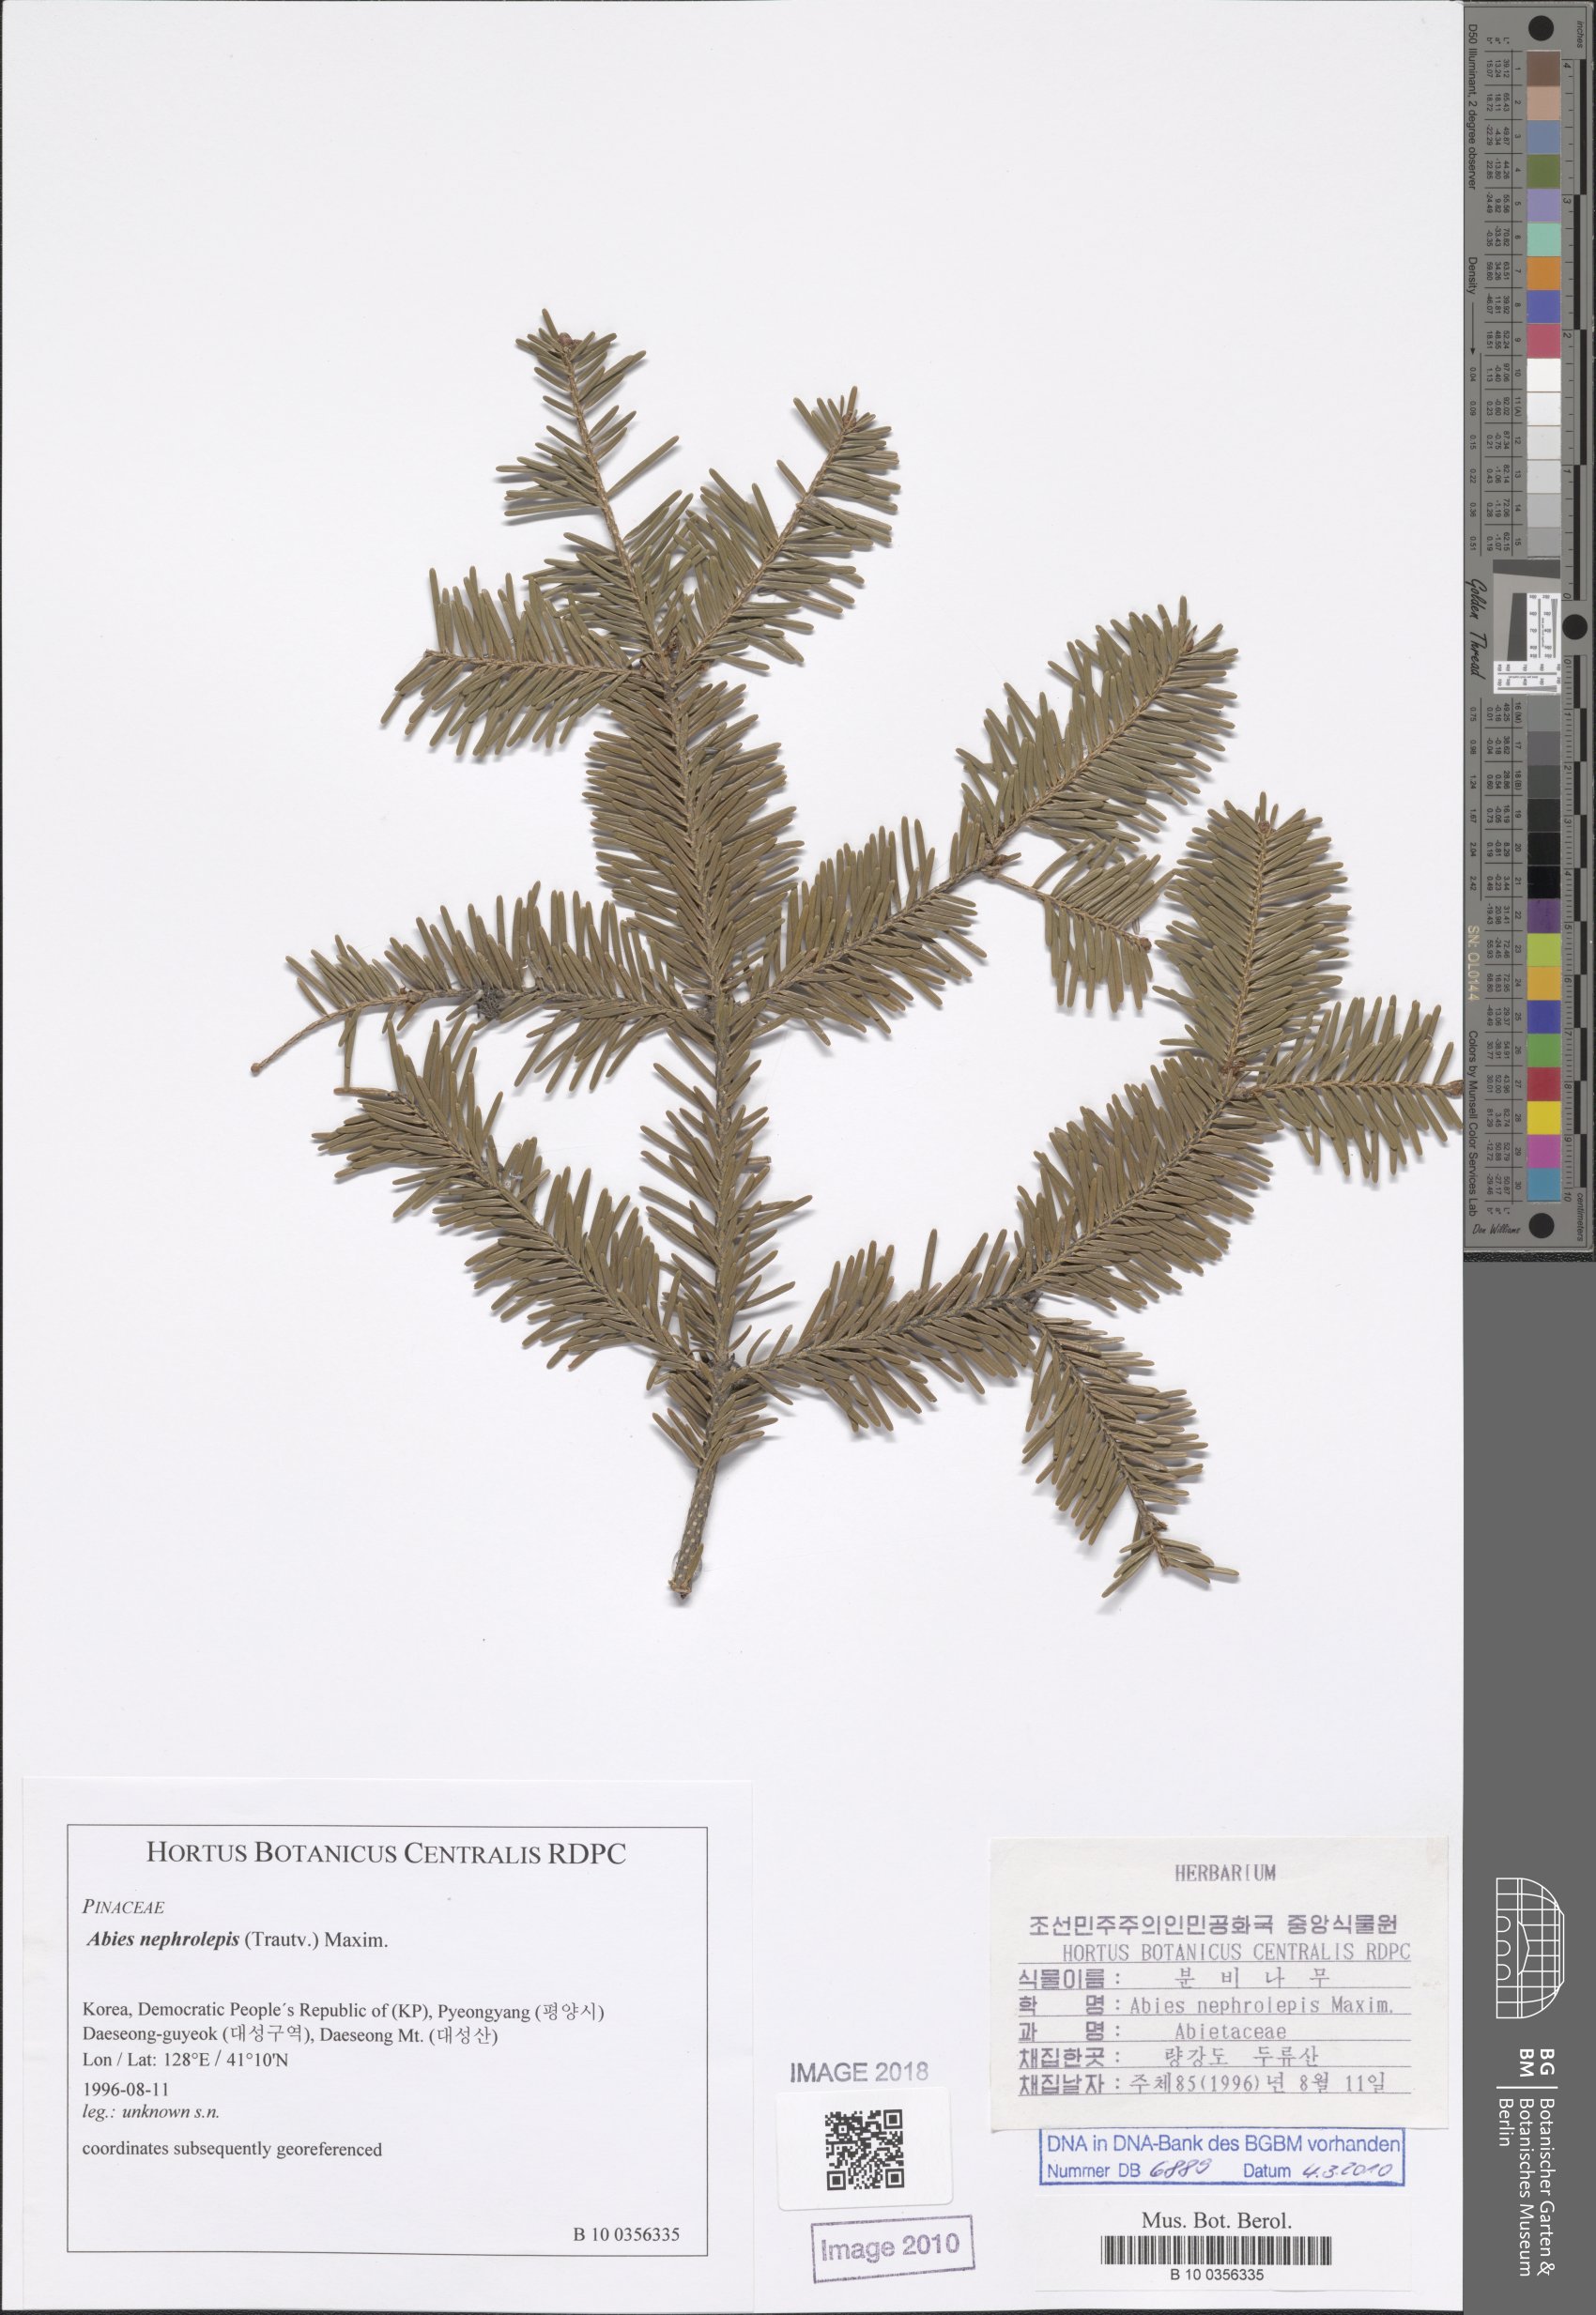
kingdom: Plantae
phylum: Tracheophyta
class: Pinopsida
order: Pinales
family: Pinaceae
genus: Abies
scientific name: Abies nephrolepis
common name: Hinggan fir
